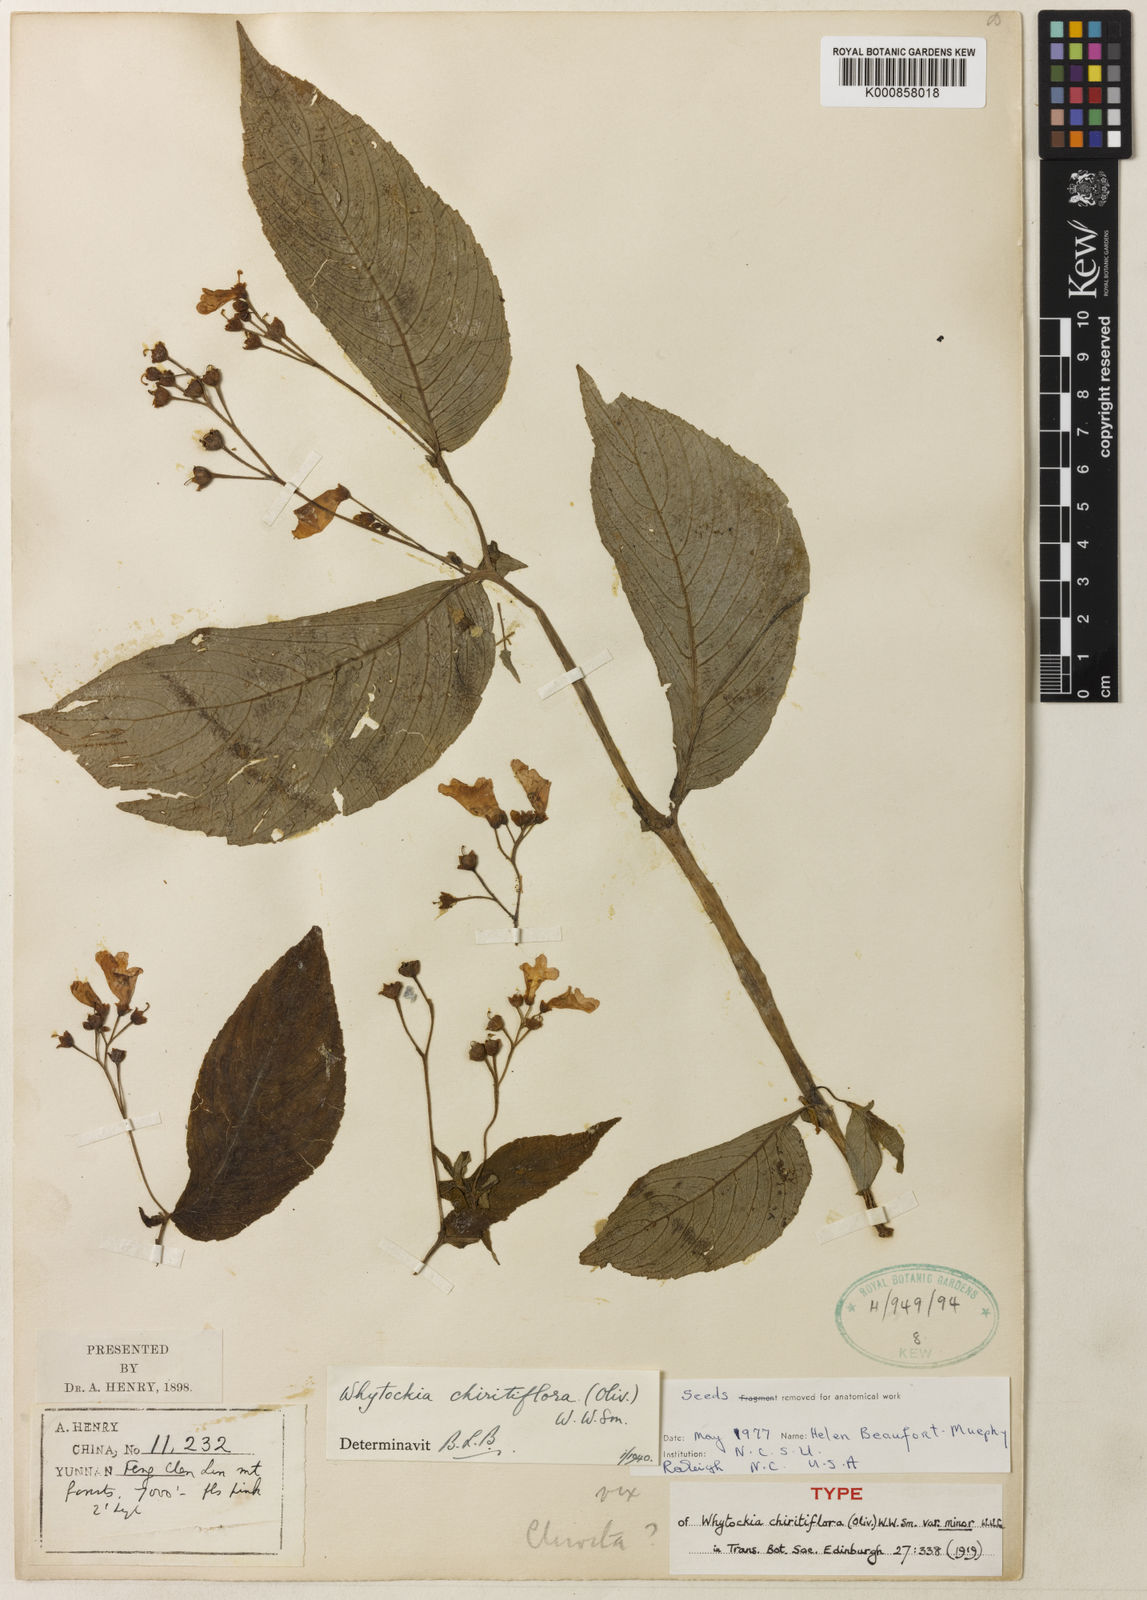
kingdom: Plantae
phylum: Tracheophyta
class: Magnoliopsida
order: Lamiales
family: Gesneriaceae
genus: Whytockia
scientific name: Whytockia chiritiflora
